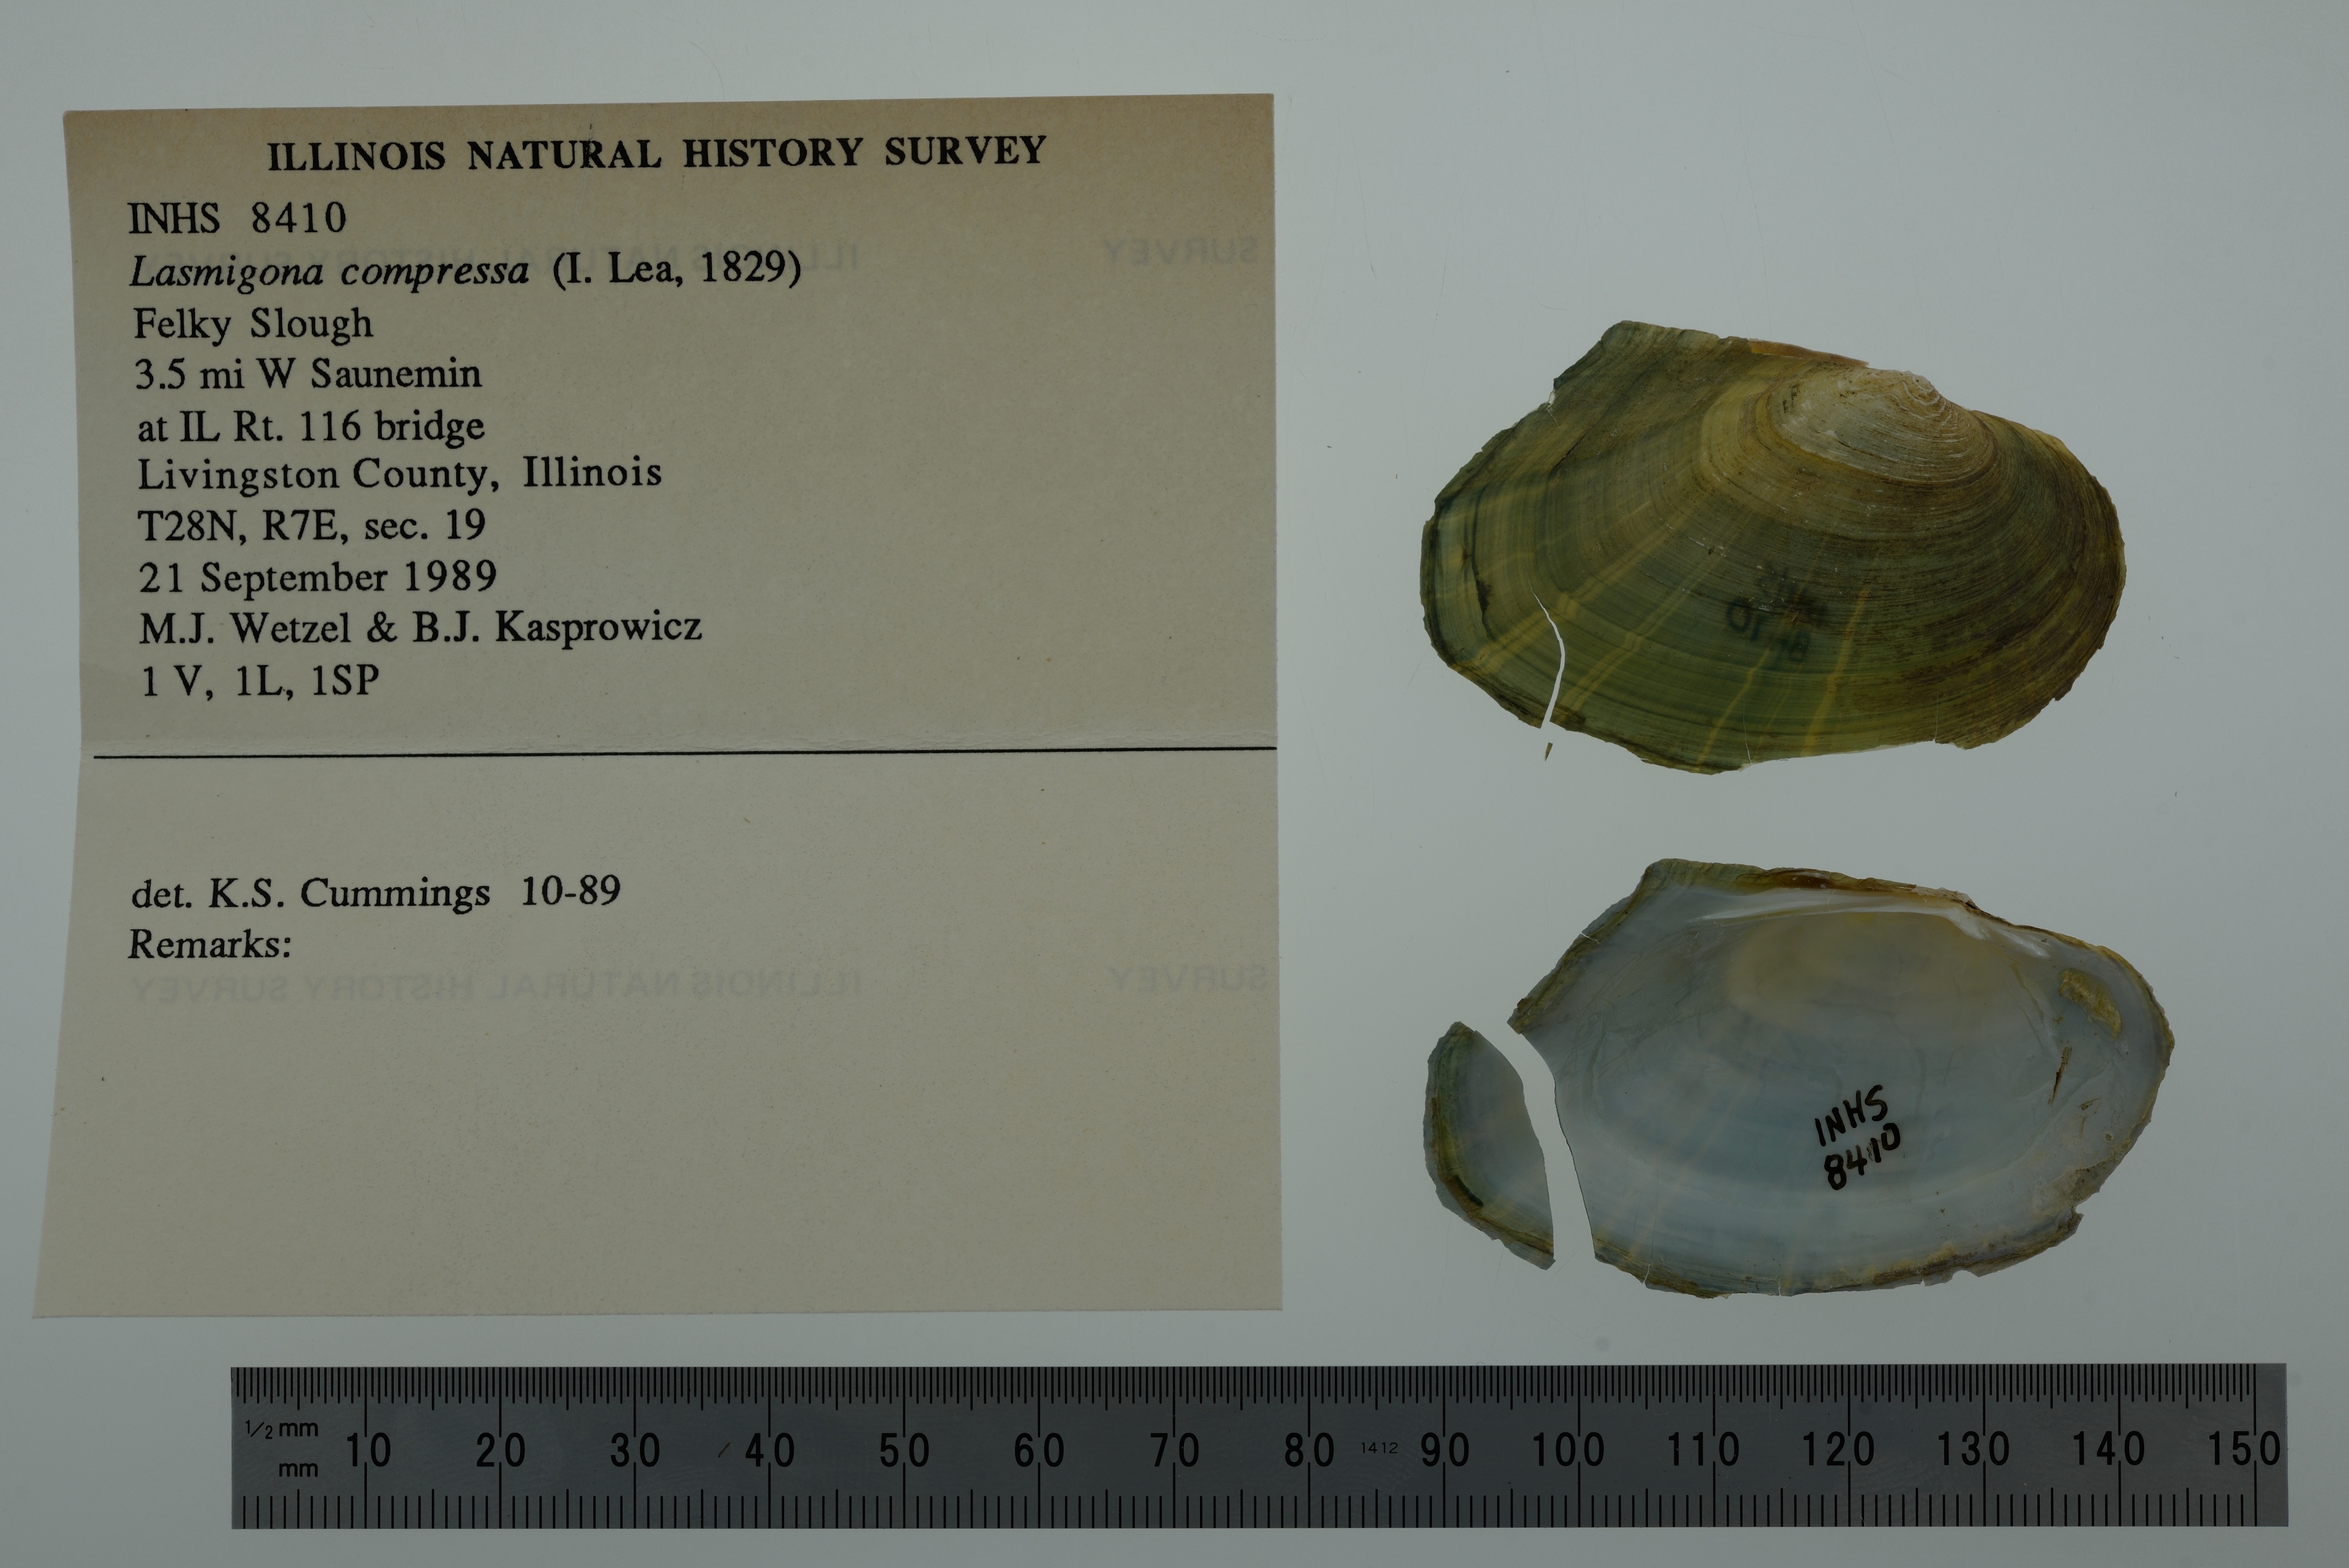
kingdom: Animalia
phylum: Mollusca
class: Bivalvia
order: Unionida
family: Unionidae
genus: Lasmigona
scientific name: Lasmigona compressa
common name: Creek heelsplitter
